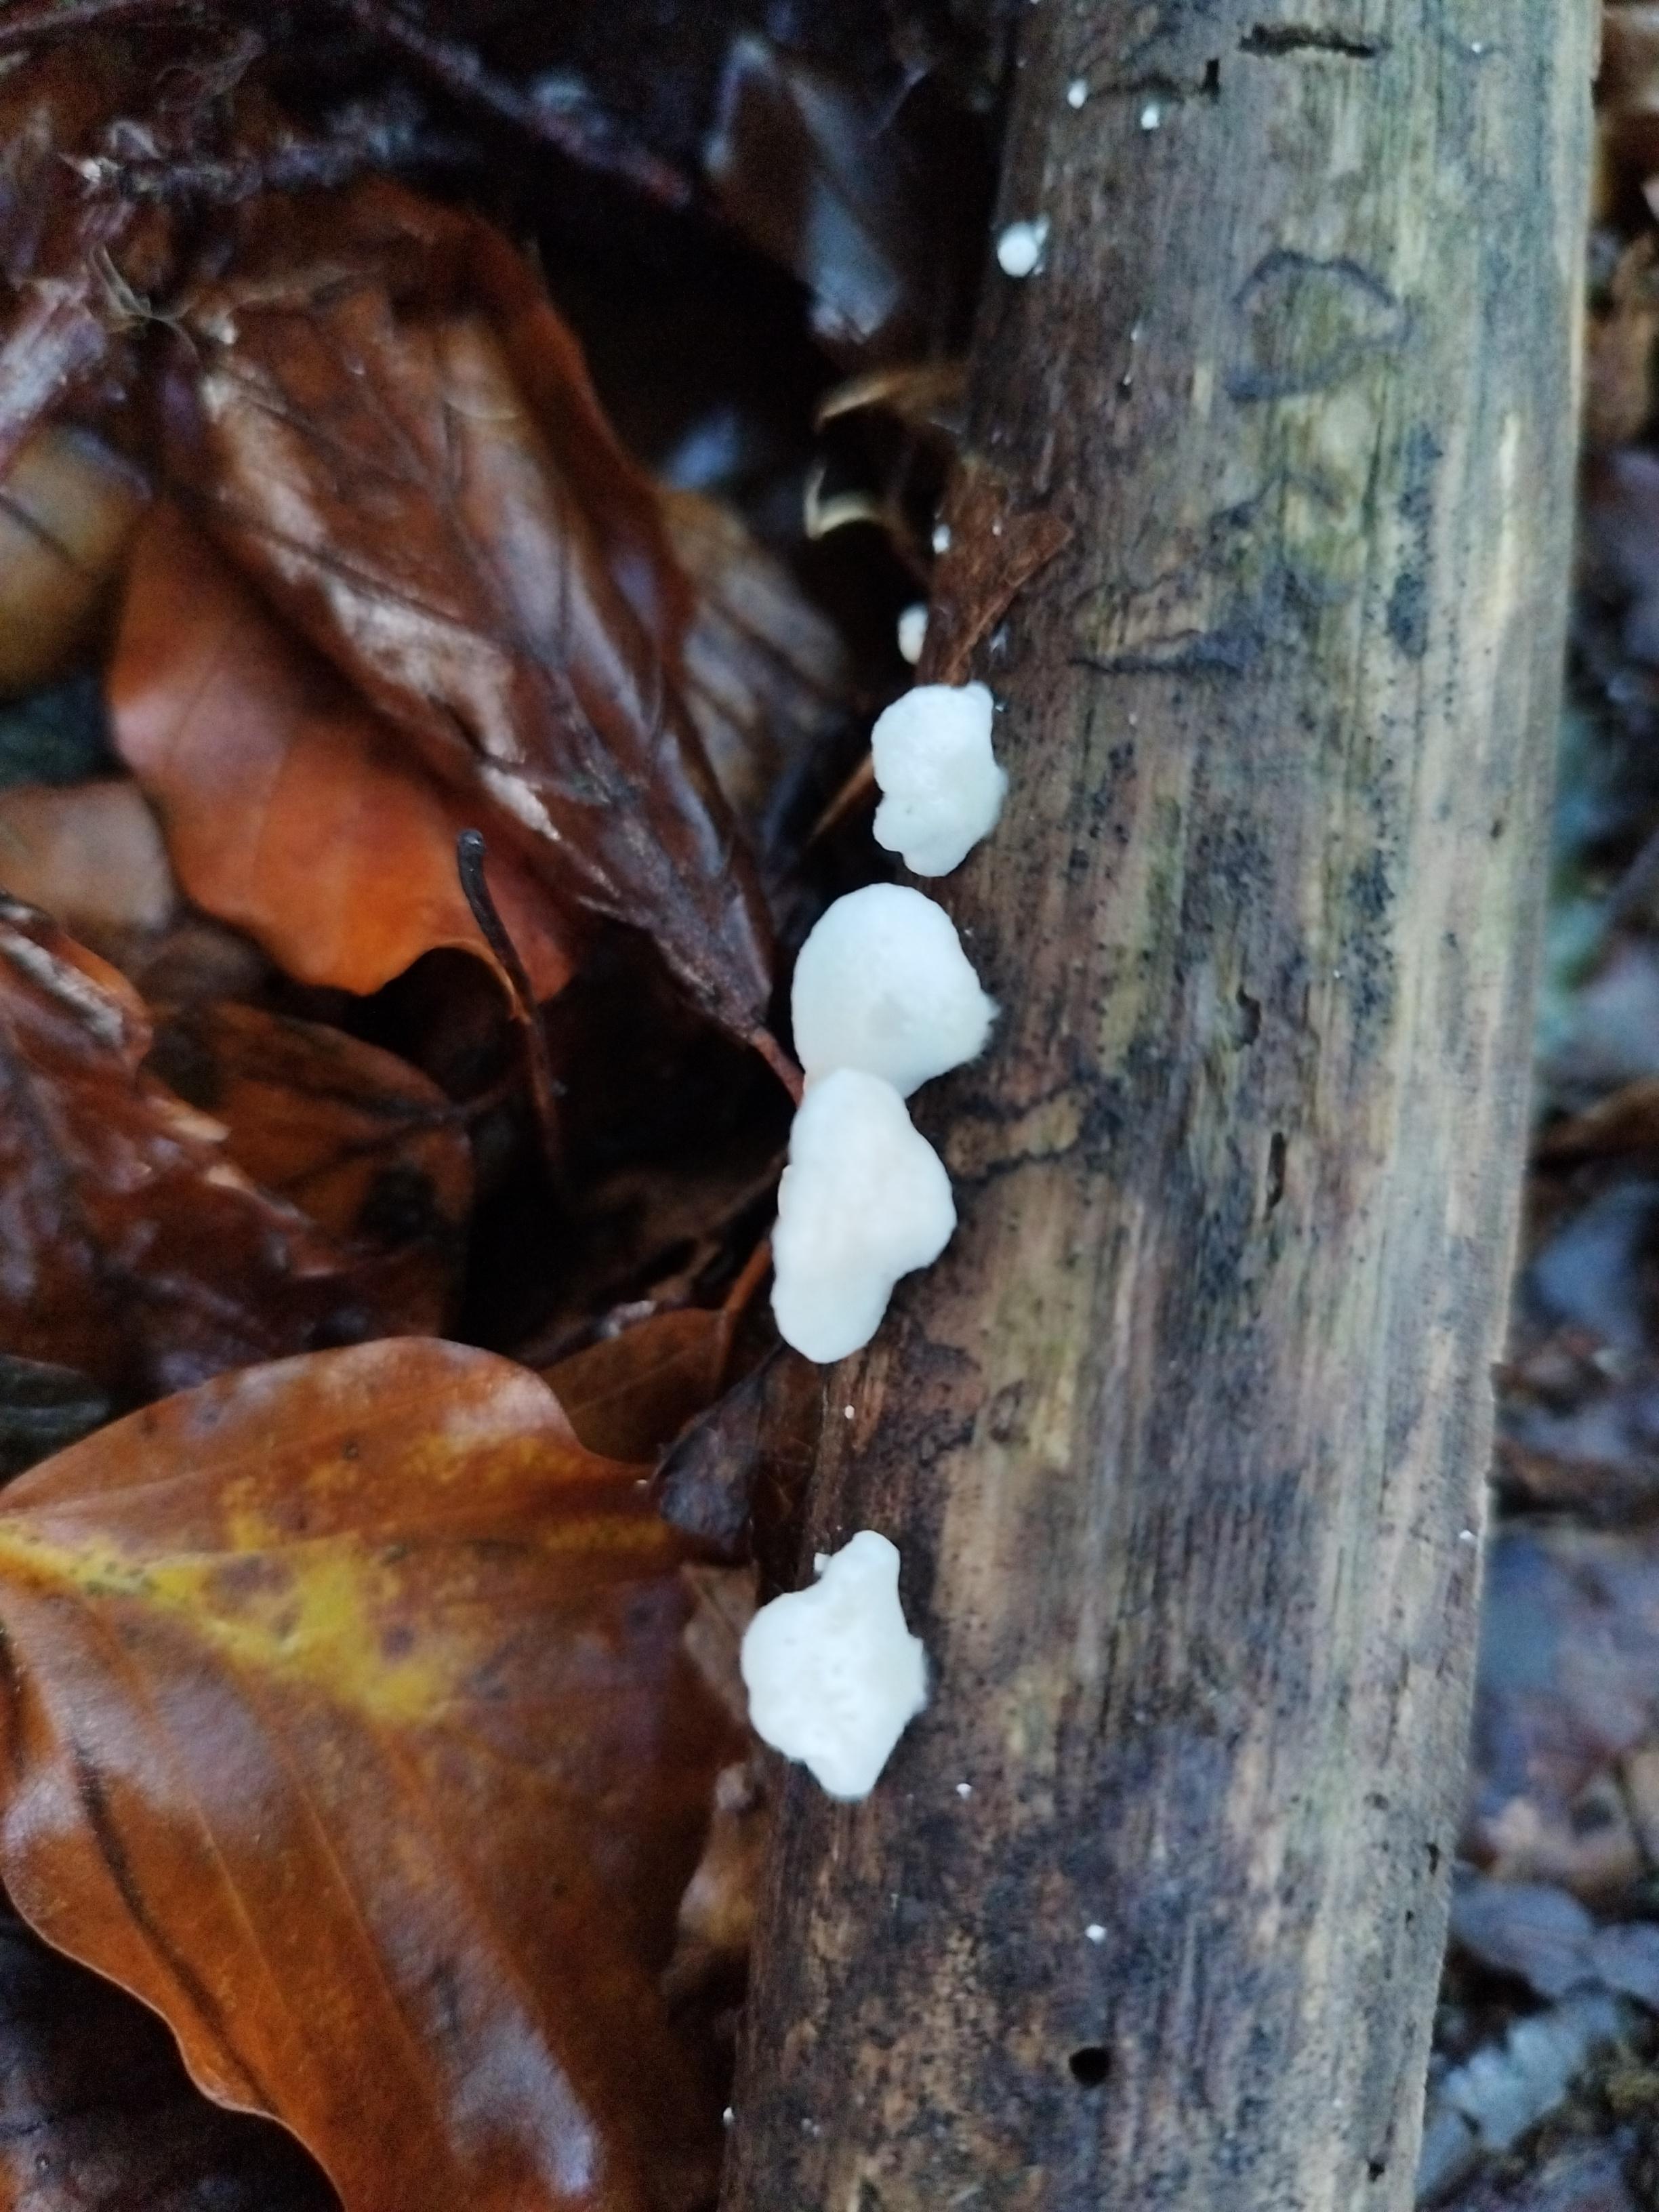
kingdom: Fungi
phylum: Basidiomycota
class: Agaricomycetes
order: Agaricales
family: Crepidotaceae
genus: Crepidotus
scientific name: Crepidotus
